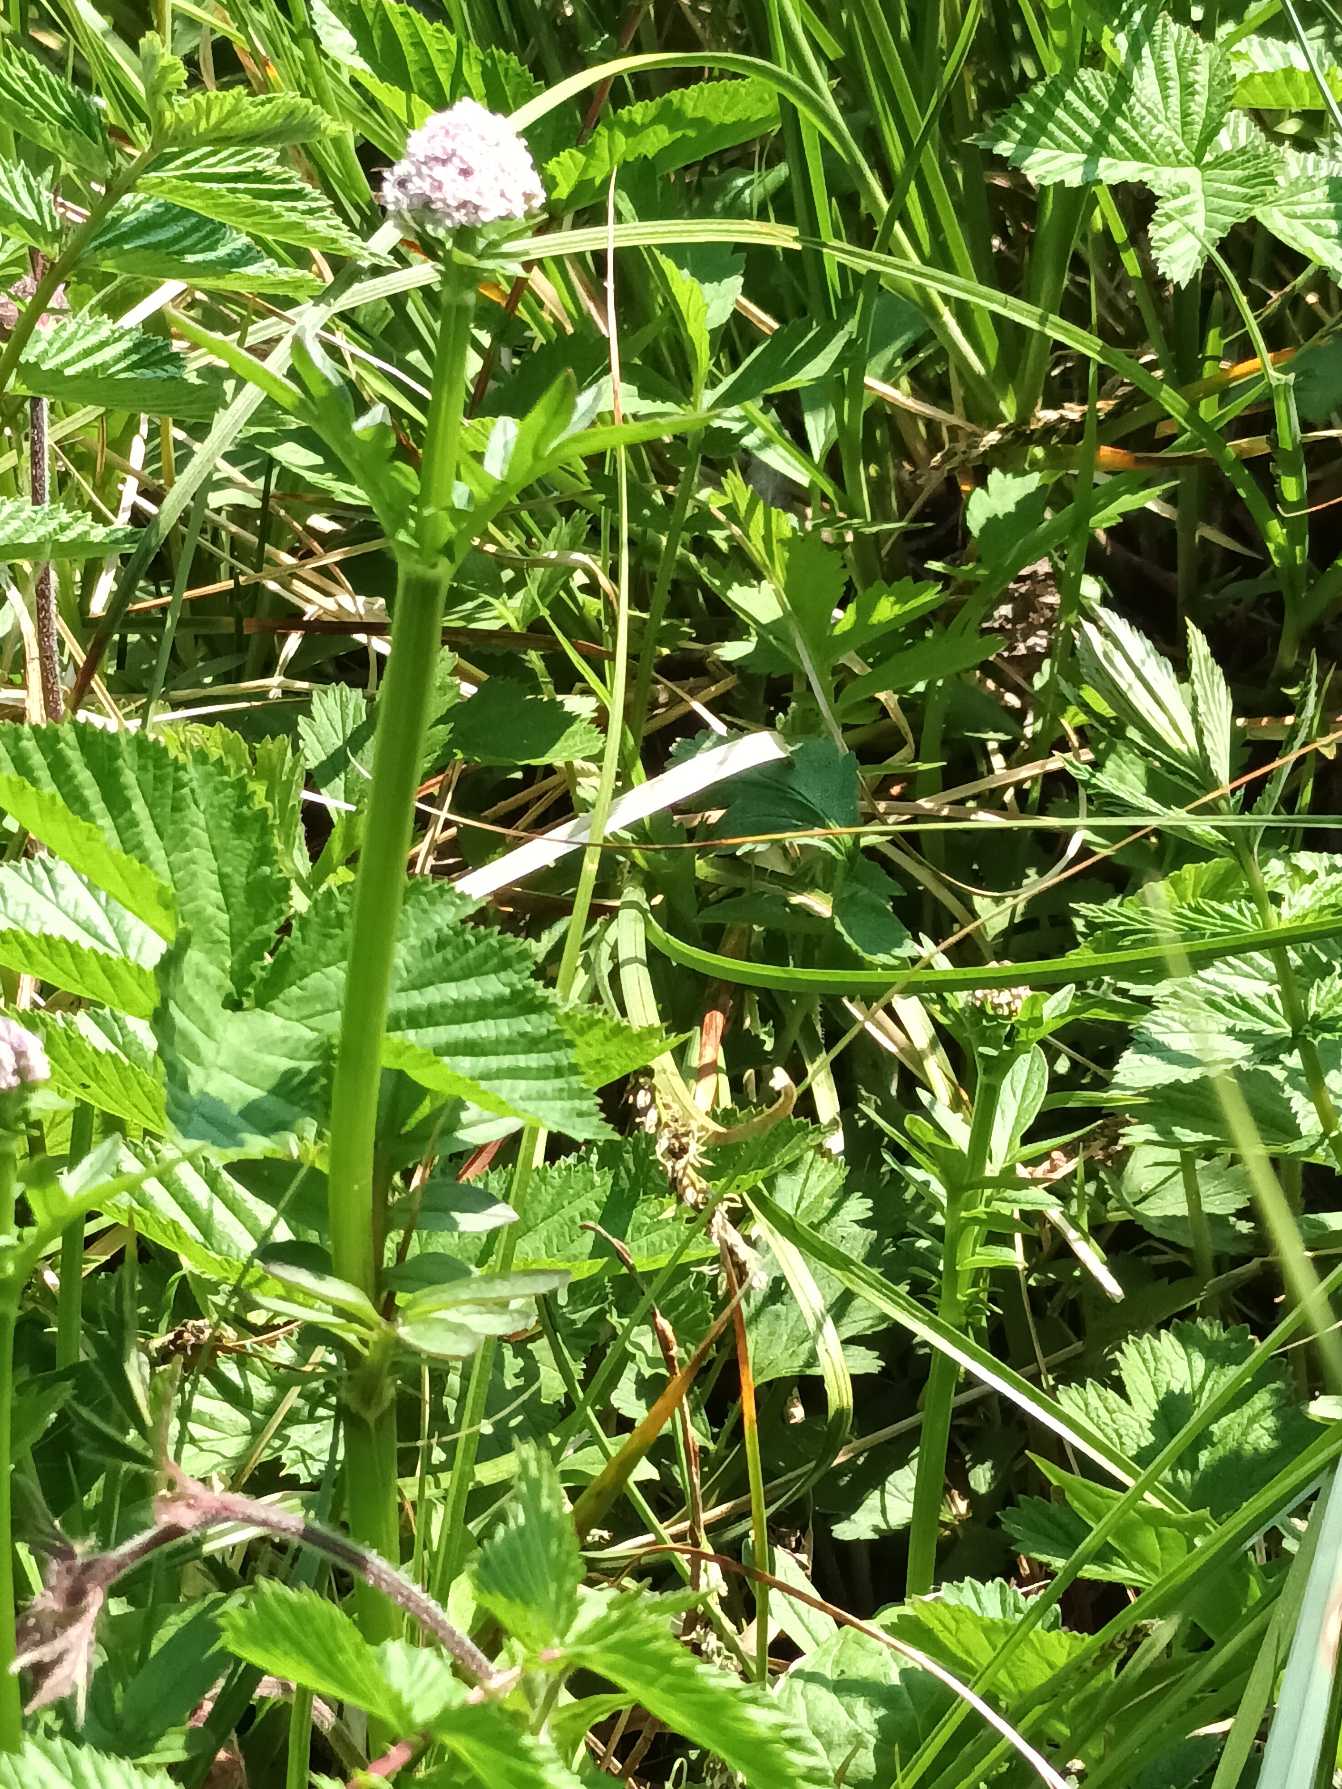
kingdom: Plantae
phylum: Tracheophyta
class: Magnoliopsida
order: Dipsacales
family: Caprifoliaceae
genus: Valeriana
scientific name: Valeriana dioica
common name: Tvebo baldrian
